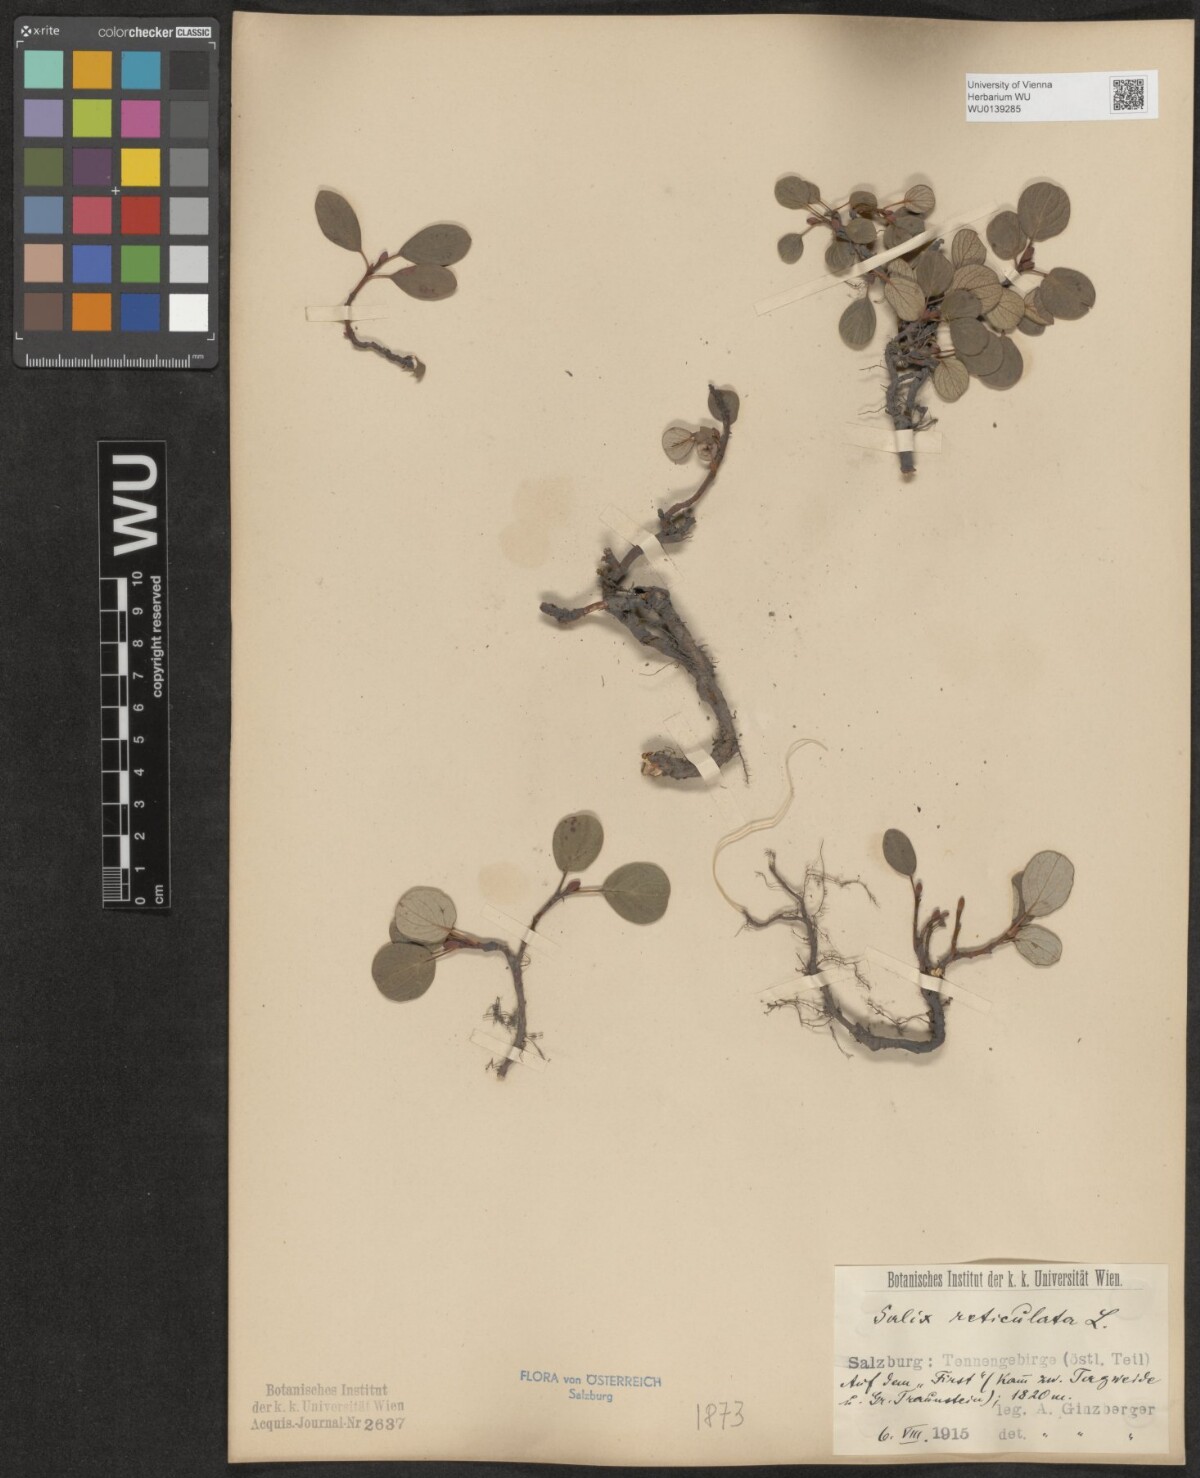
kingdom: Plantae
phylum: Tracheophyta
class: Magnoliopsida
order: Malpighiales
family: Salicaceae
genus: Salix
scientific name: Salix reticulata
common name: Net-leaved willow
